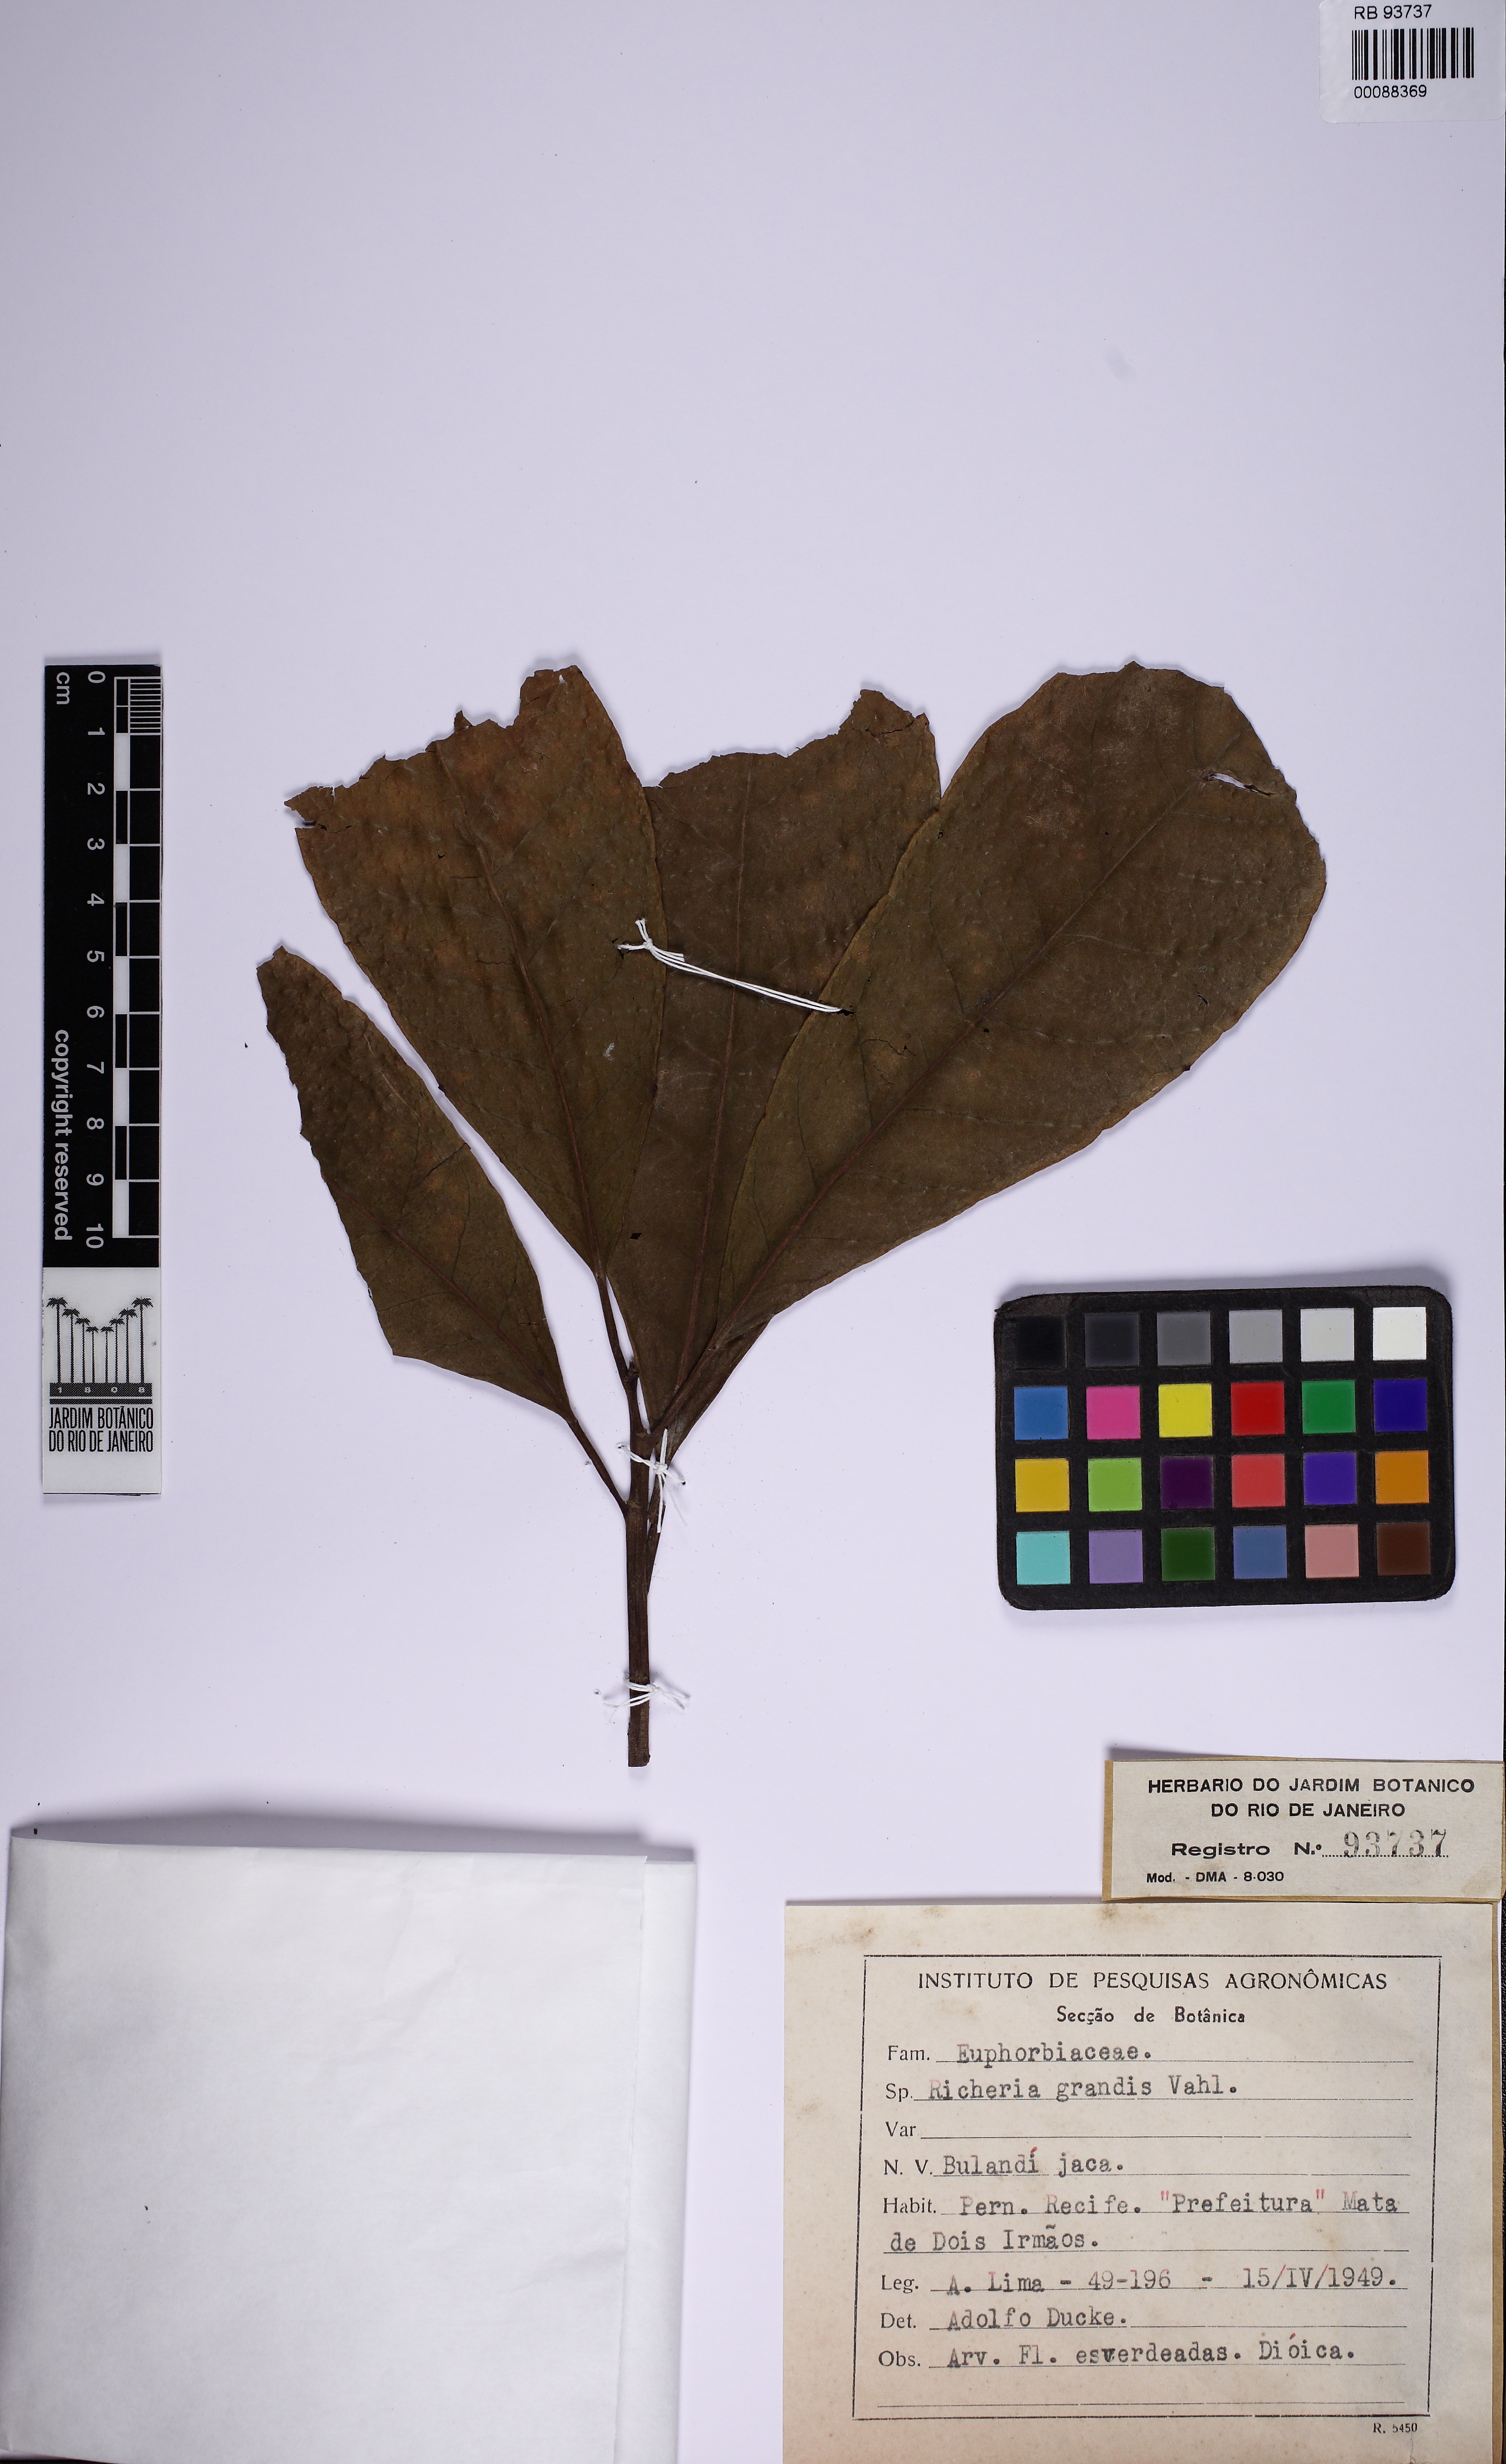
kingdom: Plantae
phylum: Tracheophyta
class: Magnoliopsida
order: Malpighiales
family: Phyllanthaceae
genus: Richeria
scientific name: Richeria grandis
